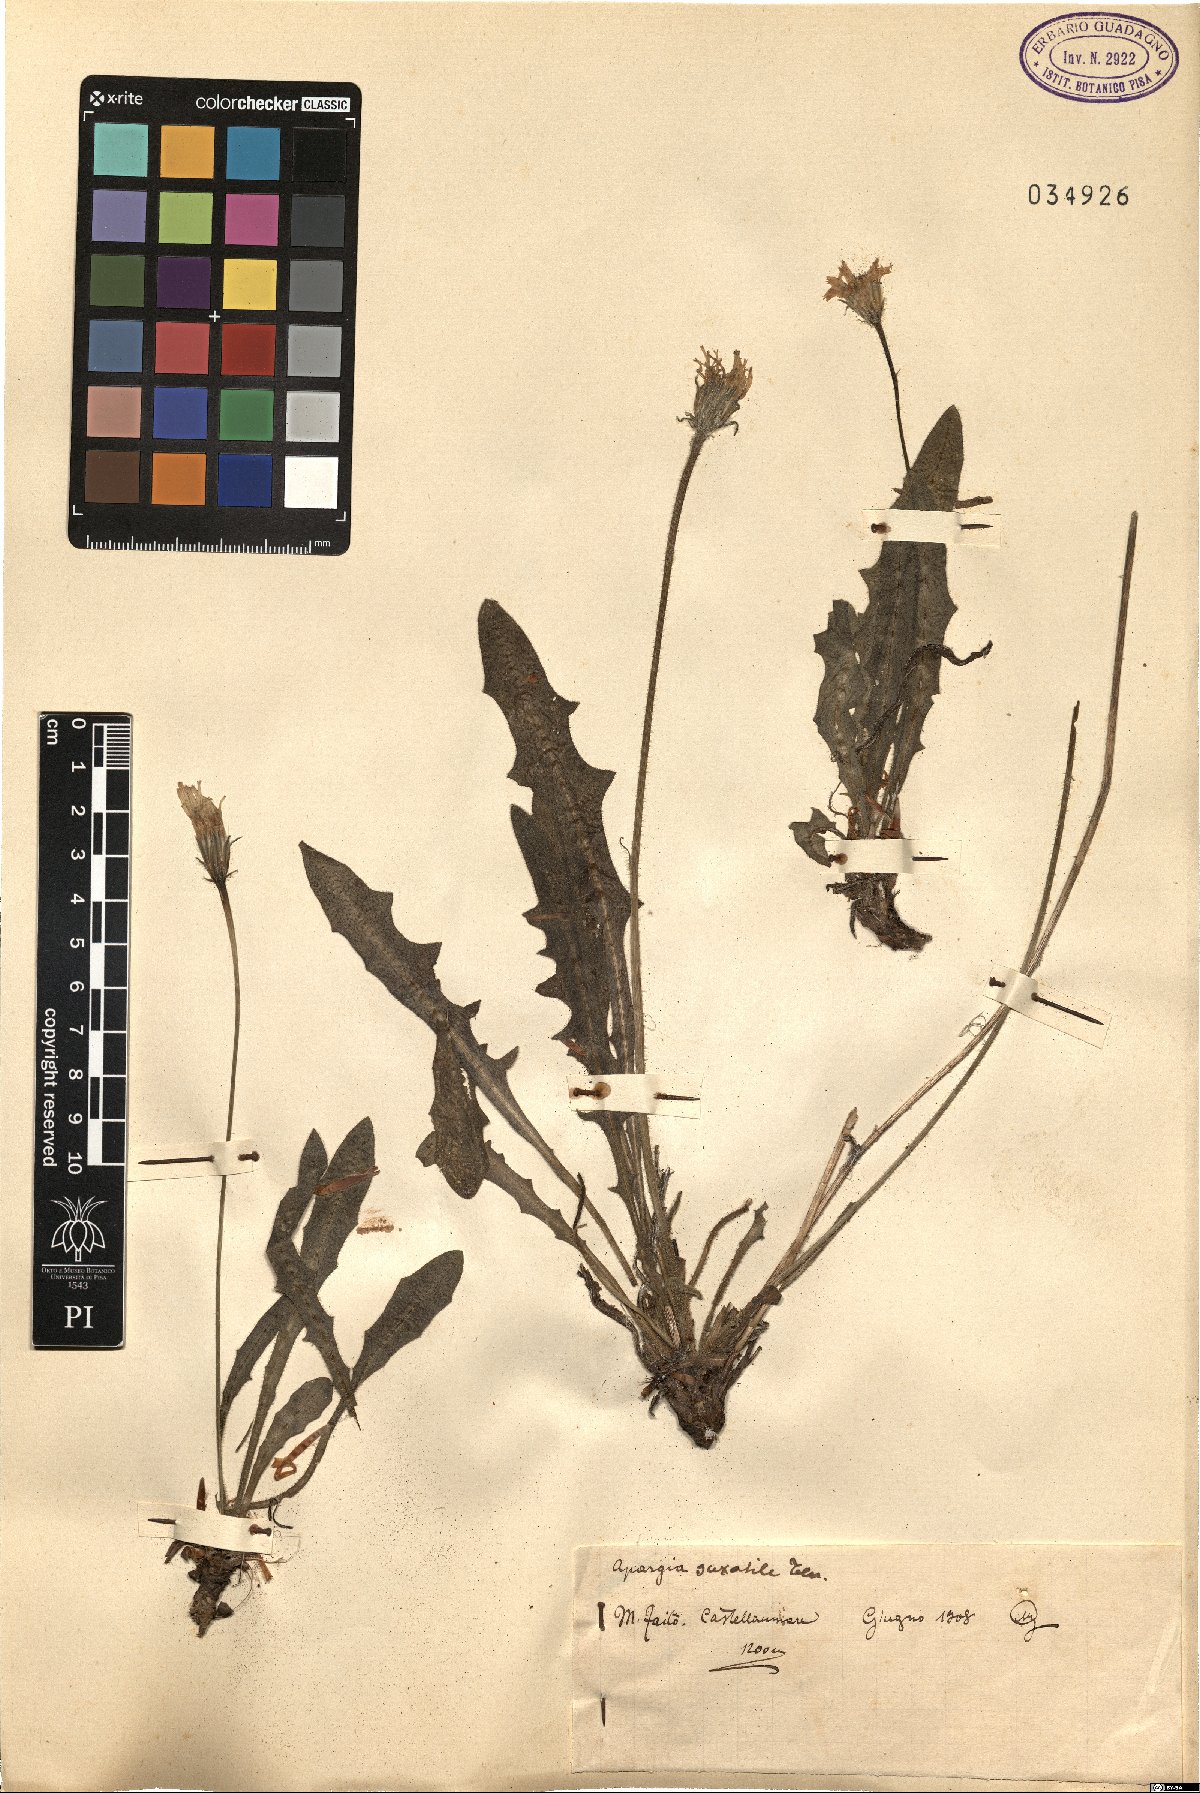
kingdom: Plantae
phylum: Tracheophyta
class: Magnoliopsida
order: Asterales
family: Asteraceae
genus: Leontodon
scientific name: Leontodon crispus
